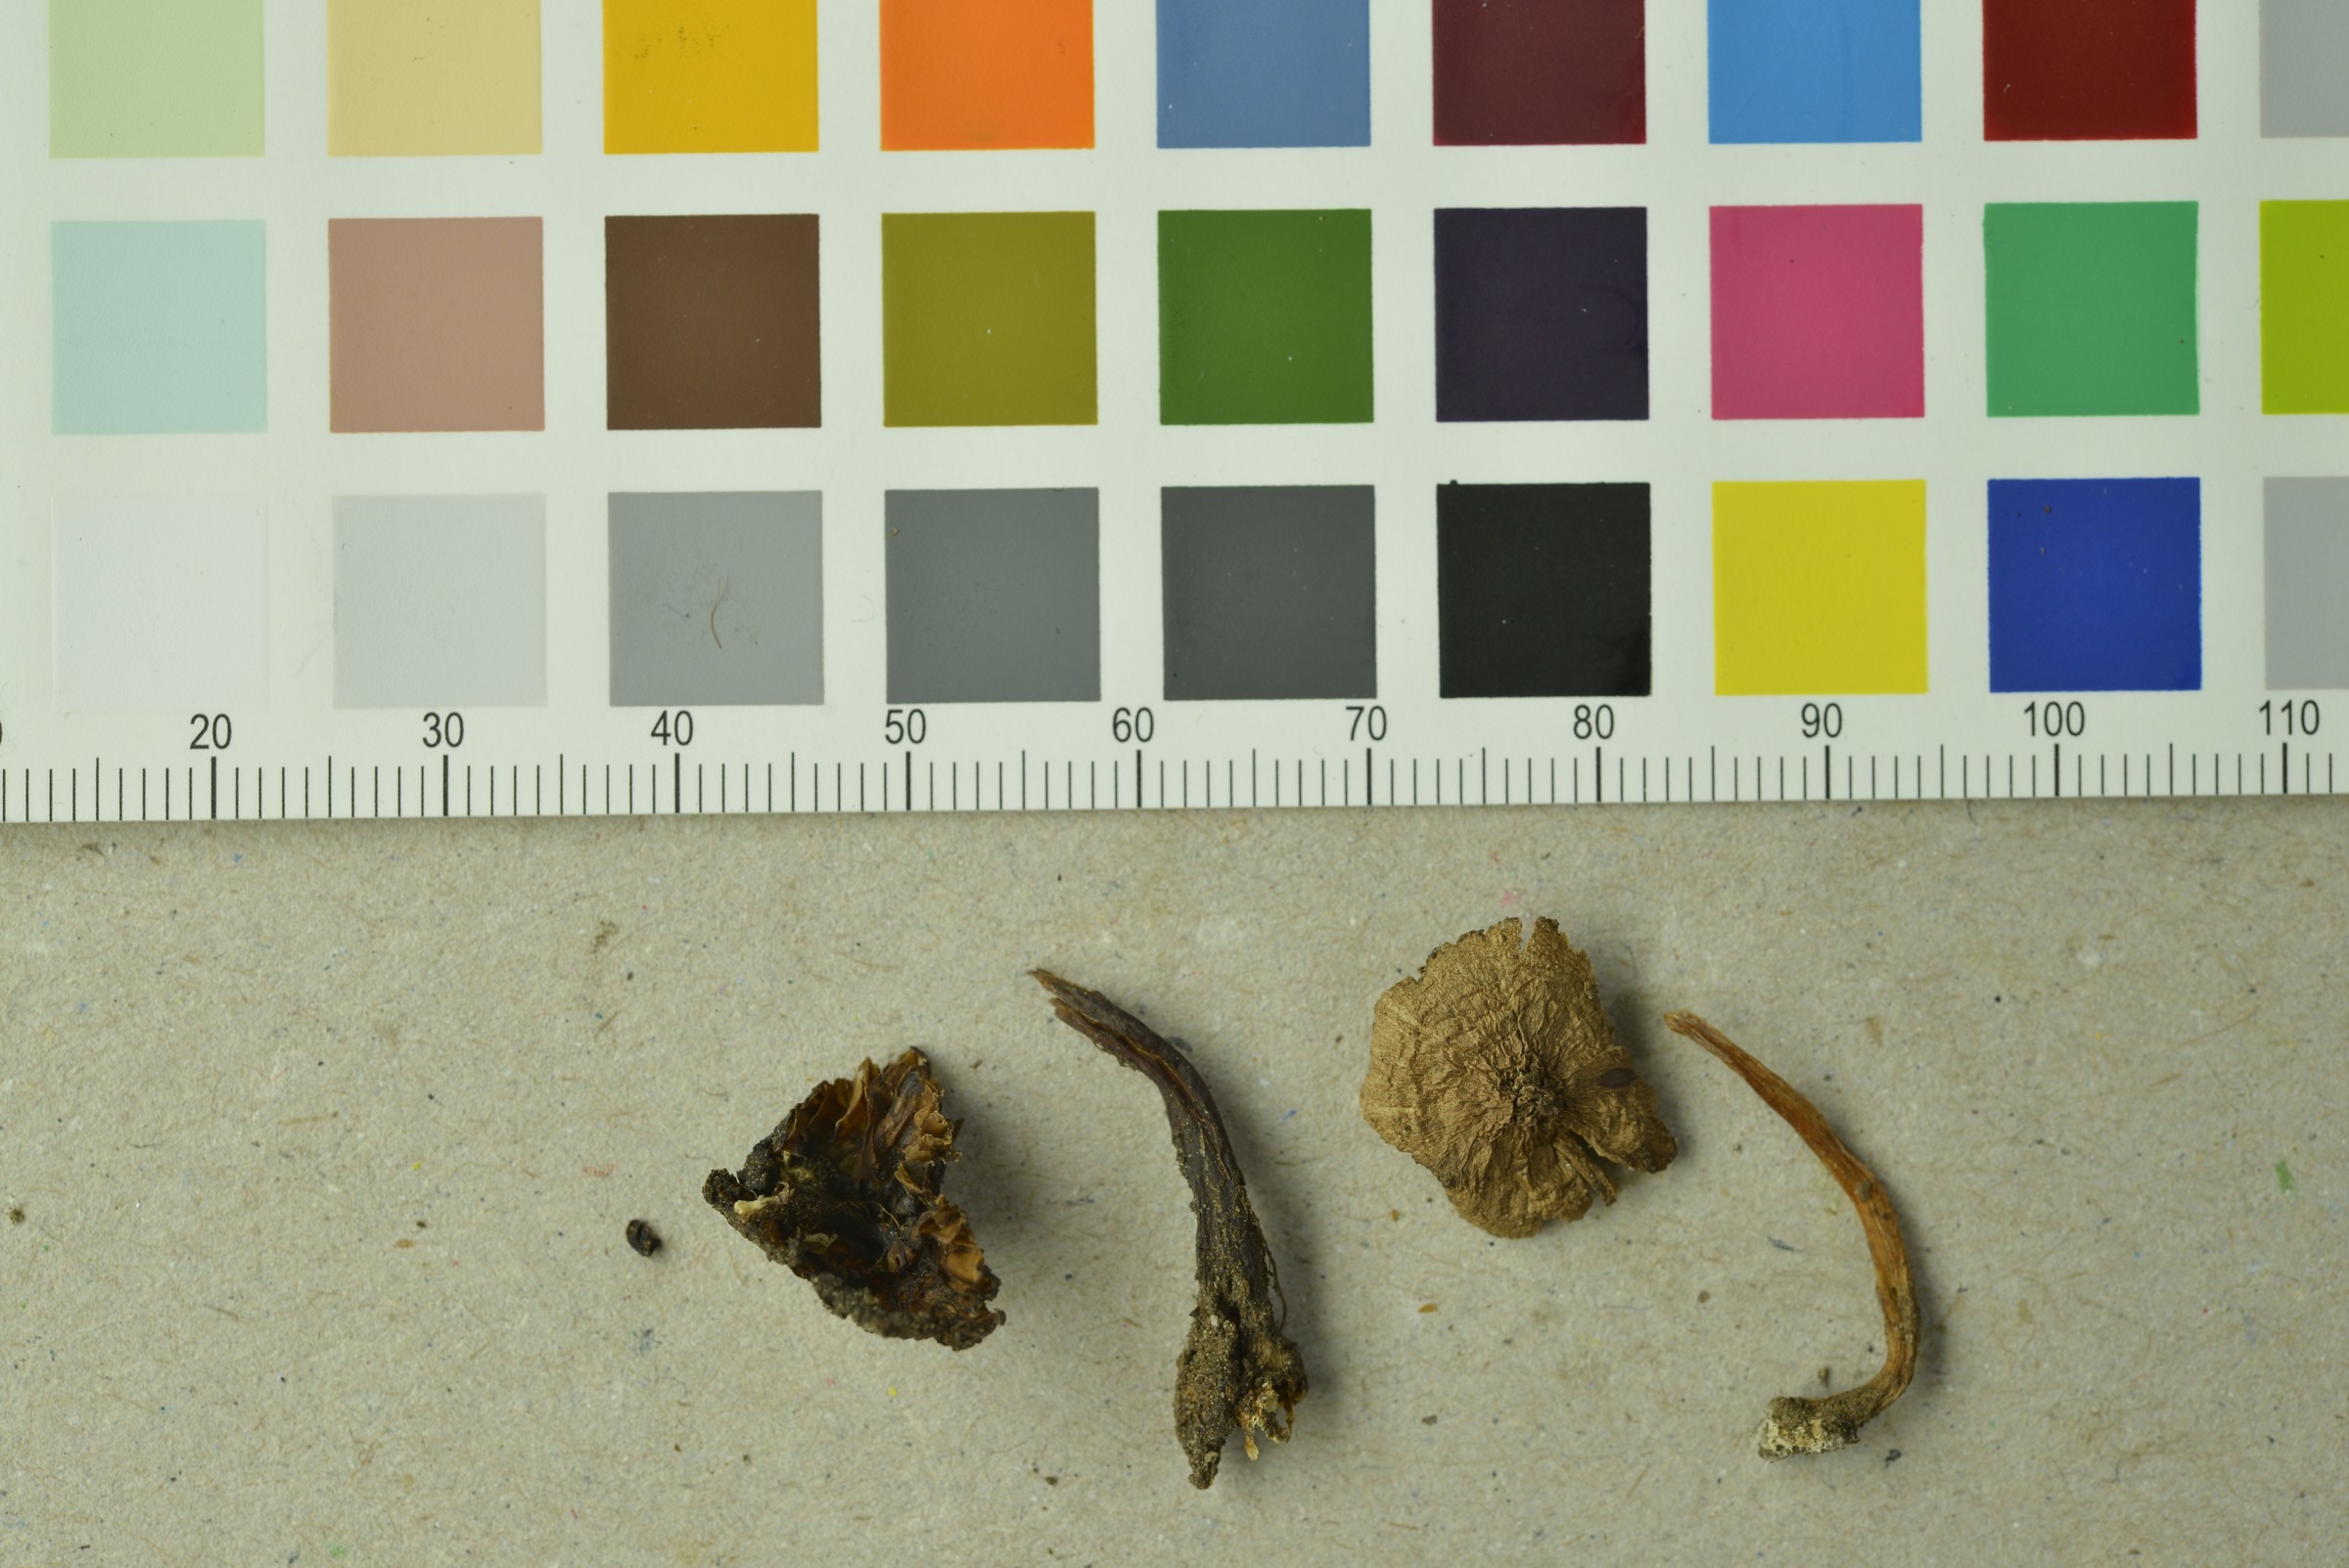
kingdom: Fungi
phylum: Basidiomycota
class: Agaricomycetes
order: Agaricales
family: Inocybaceae
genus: Inocybe
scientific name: Inocybe albomarginata
